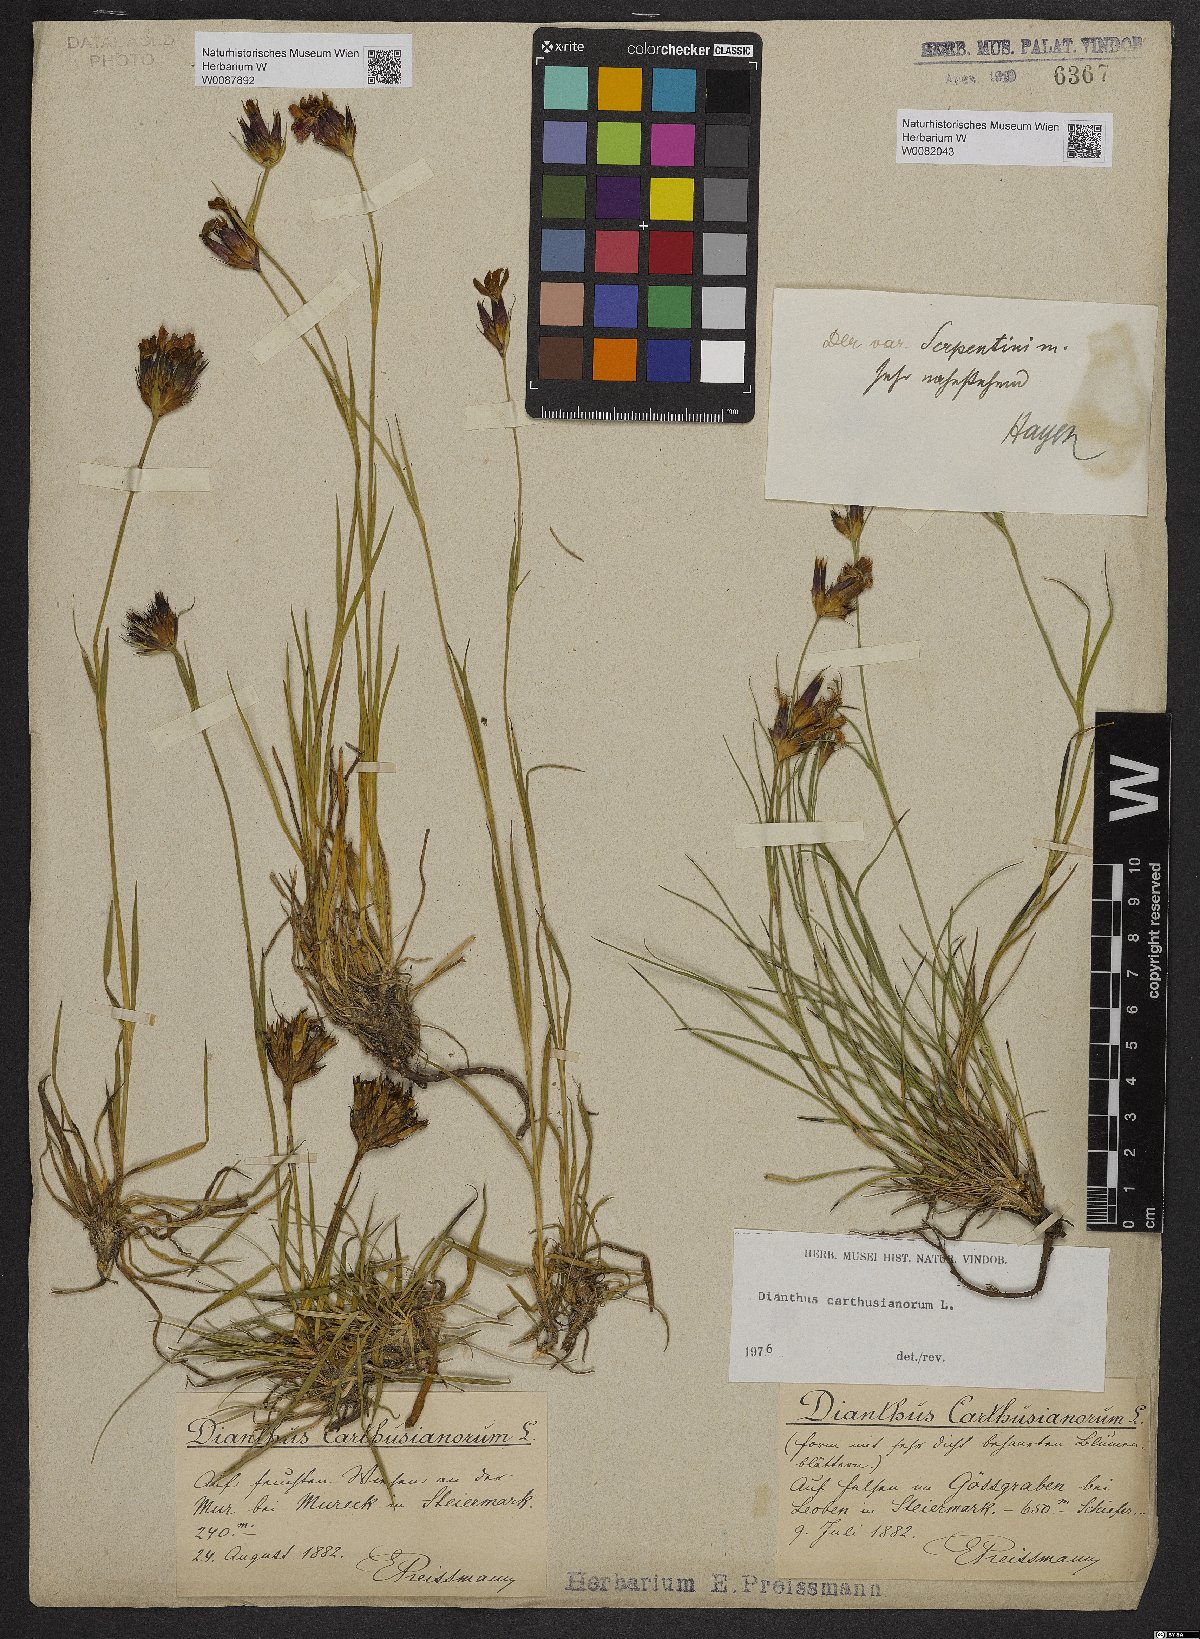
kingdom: Plantae
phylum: Tracheophyta
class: Magnoliopsida
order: Caryophyllales
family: Caryophyllaceae
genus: Dianthus
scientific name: Dianthus carthusianorum
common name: Carthusian pink
